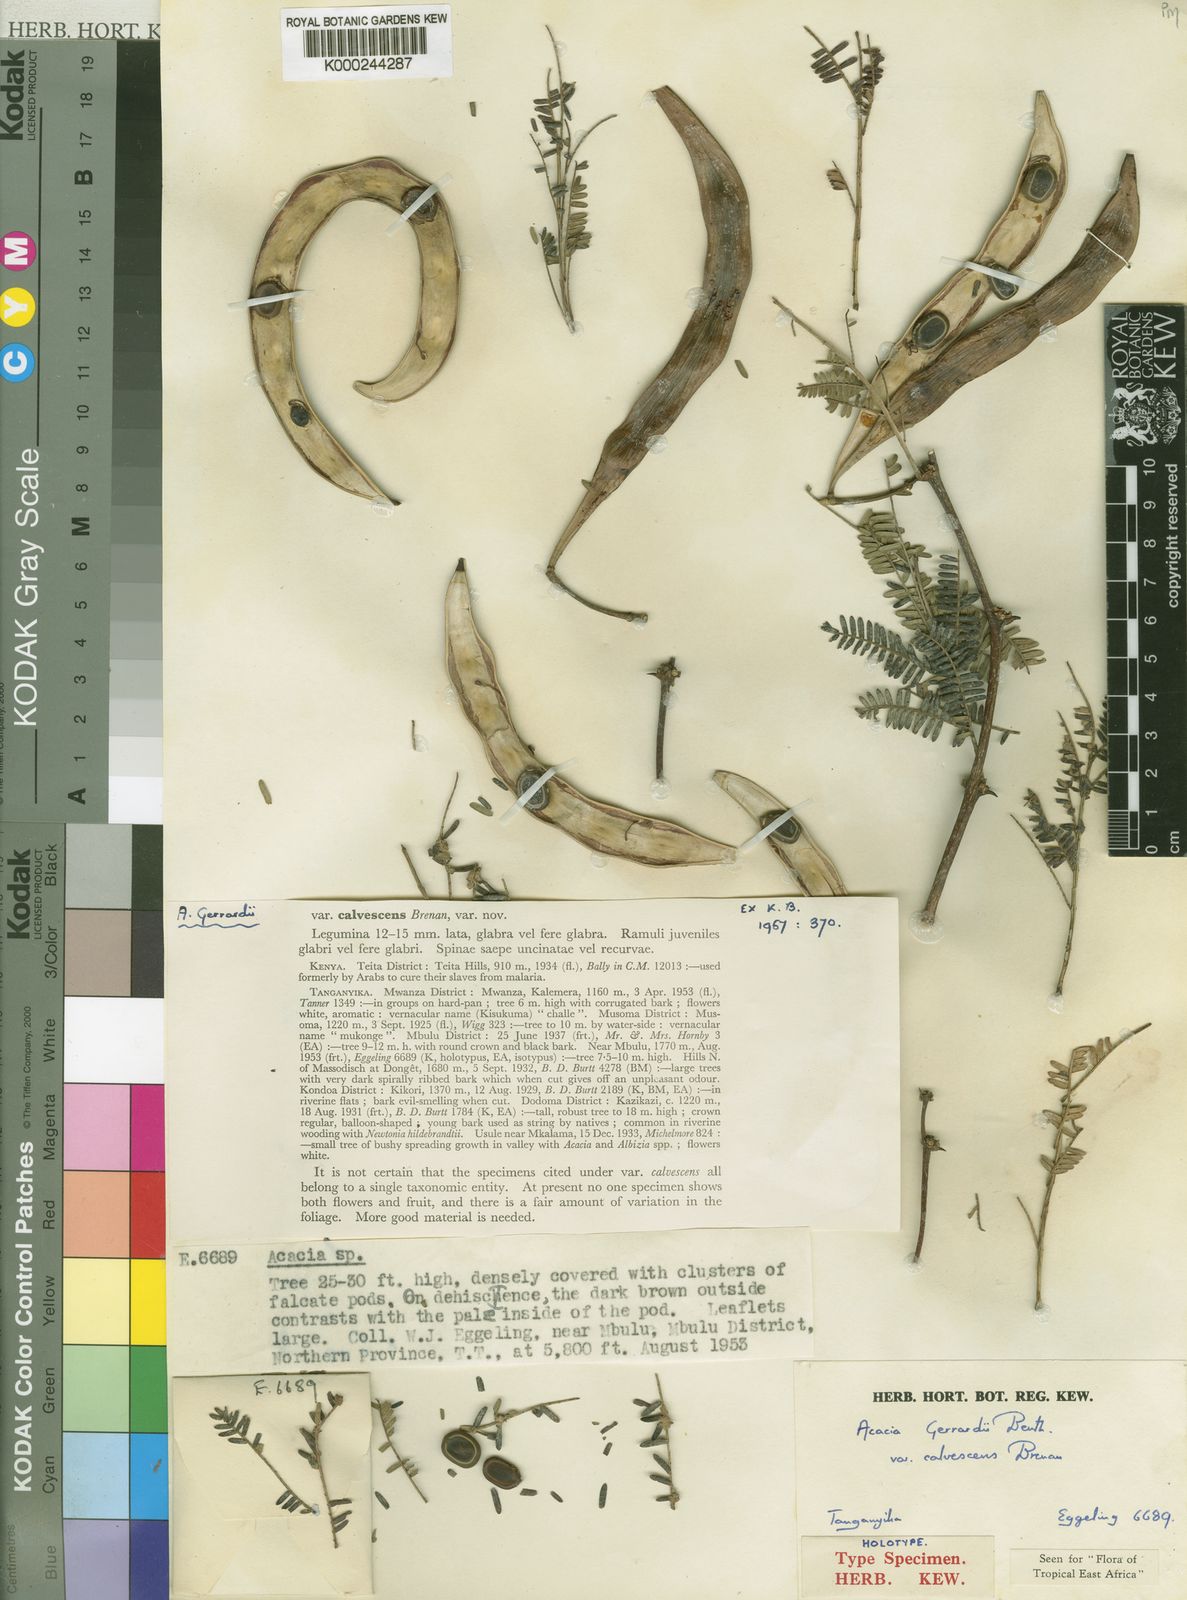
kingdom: Plantae
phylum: Tracheophyta
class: Magnoliopsida
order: Fabales
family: Fabaceae
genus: Vachellia
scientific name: Vachellia gerrardii
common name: Redthorn
